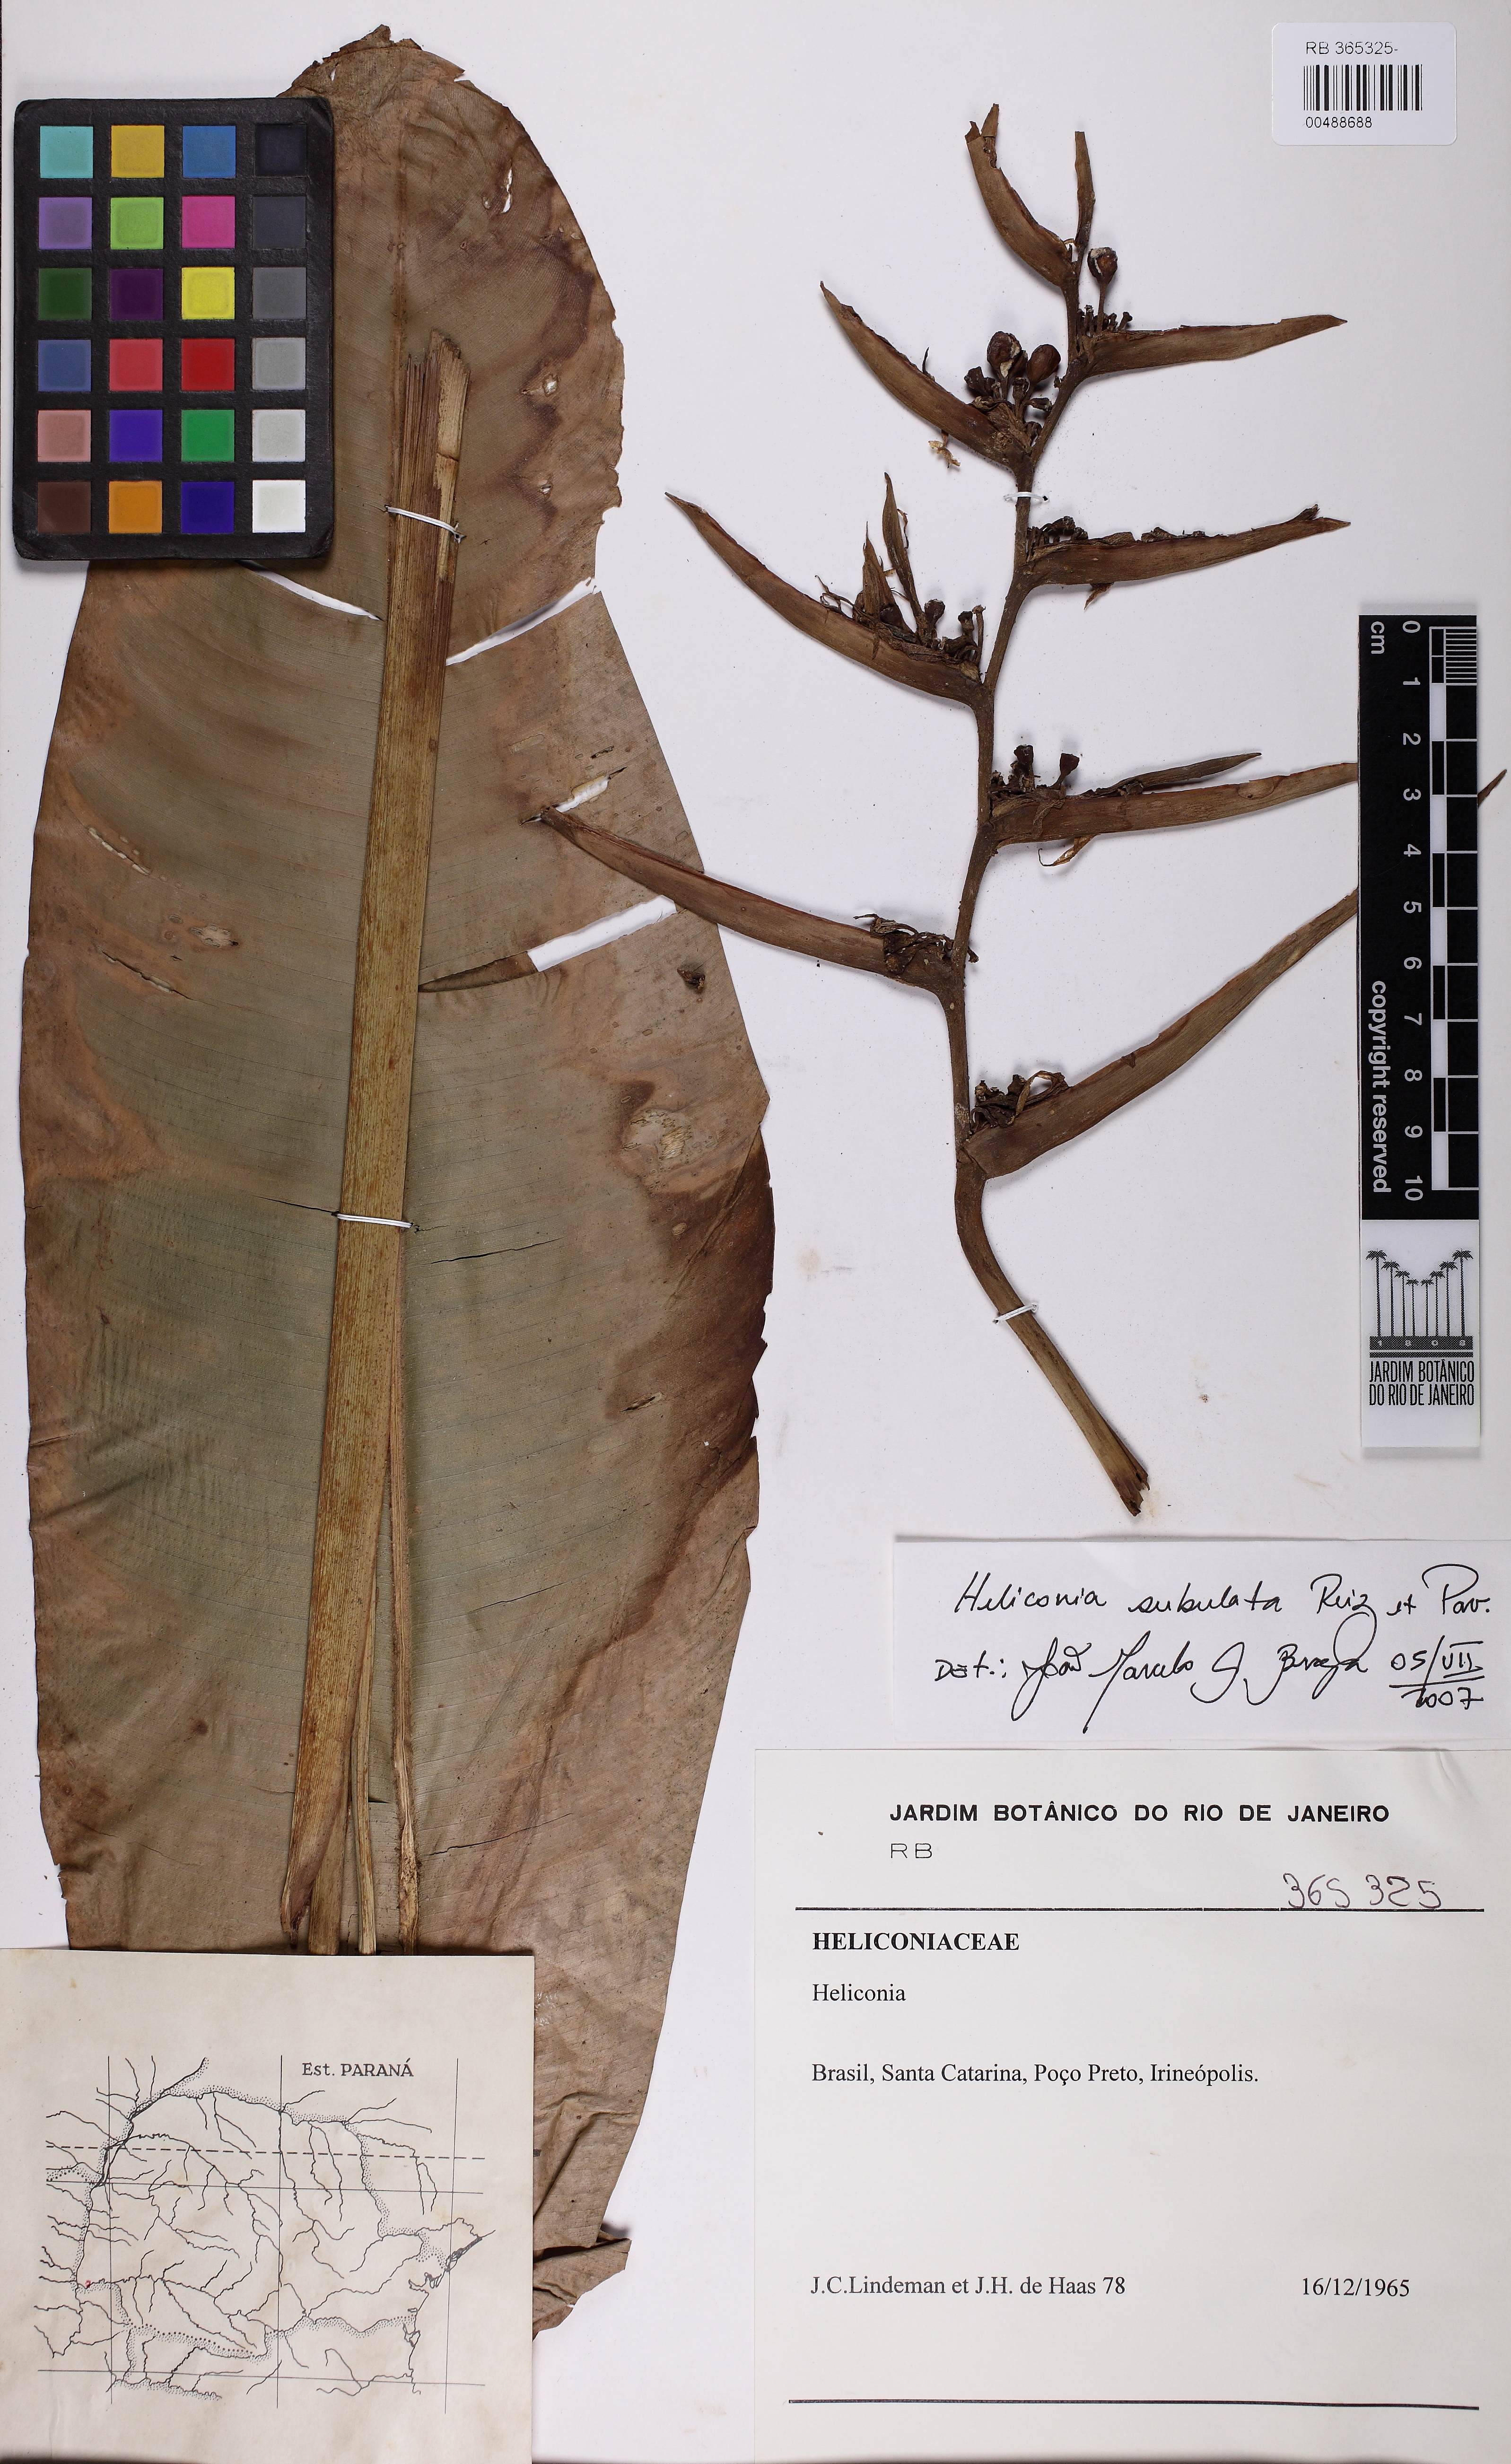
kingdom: Plantae
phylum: Tracheophyta
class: Liliopsida
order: Zingiberales
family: Heliconiaceae
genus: Heliconia
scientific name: Heliconia subulata
